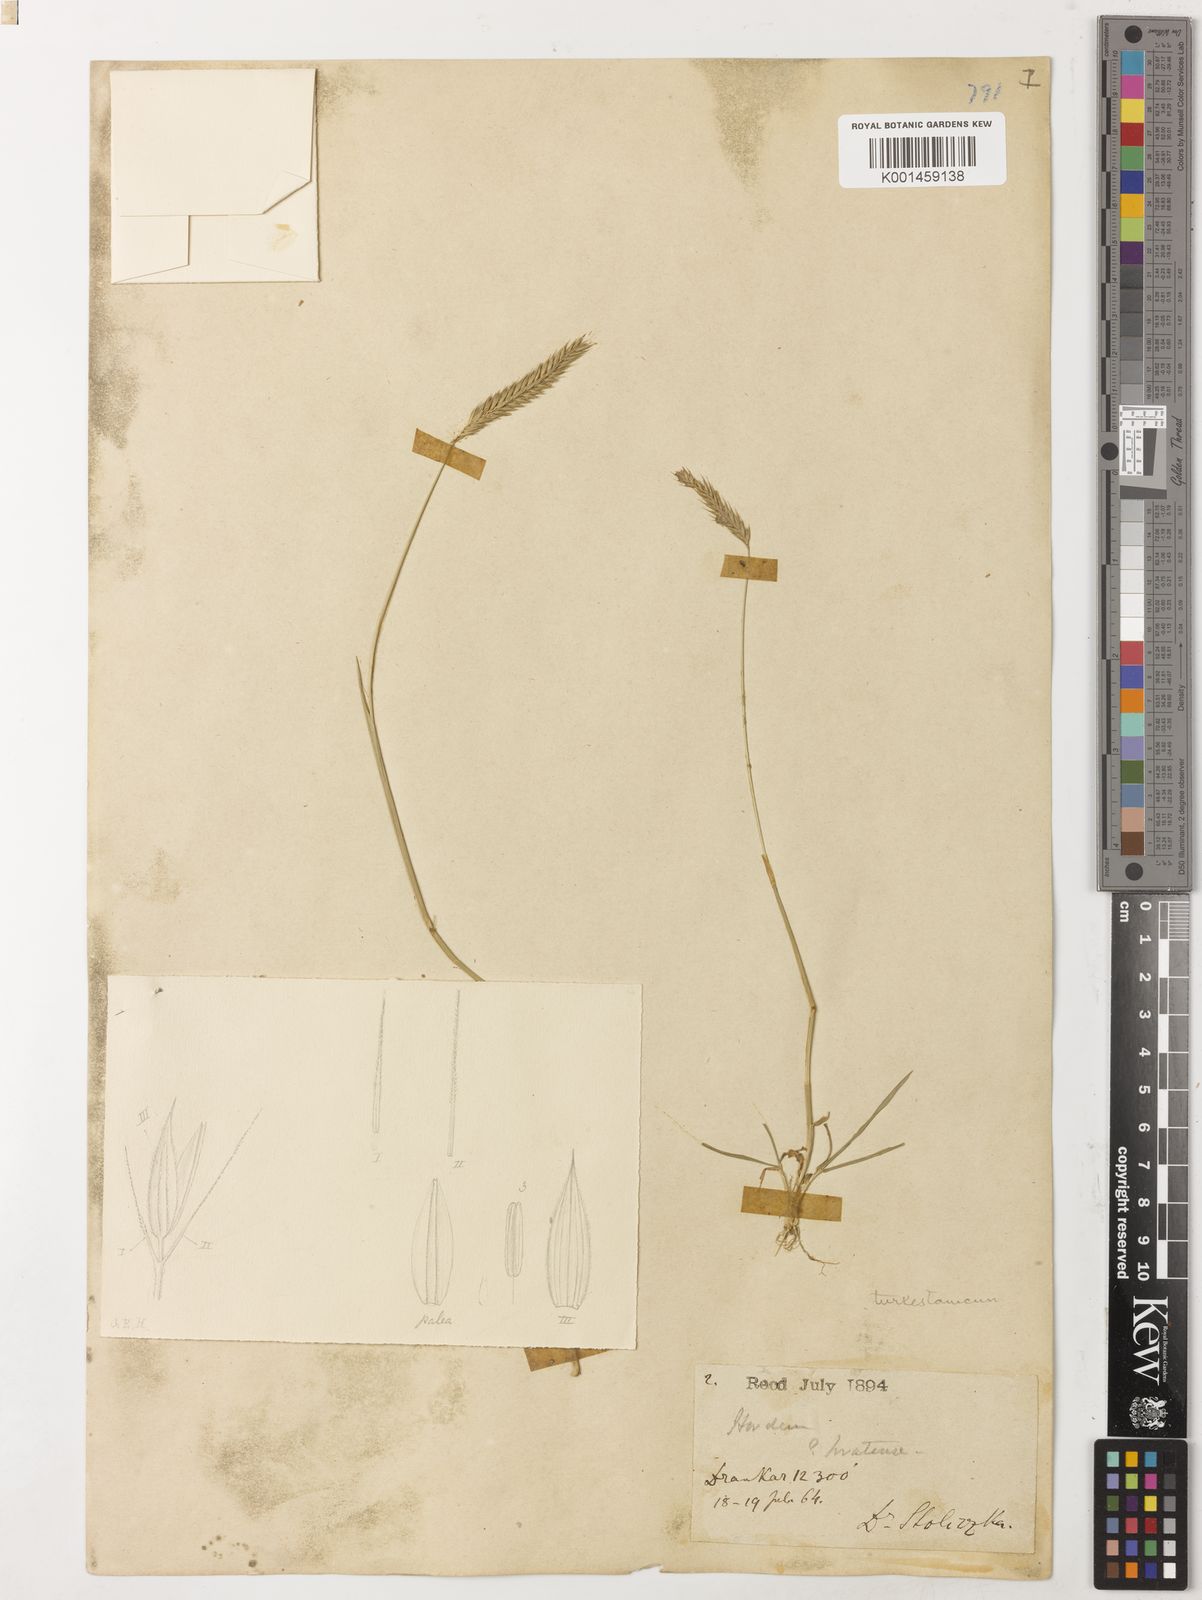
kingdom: Plantae
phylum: Tracheophyta
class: Liliopsida
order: Poales
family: Poaceae
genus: Hordeum
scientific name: Hordeum brevisubulatum
